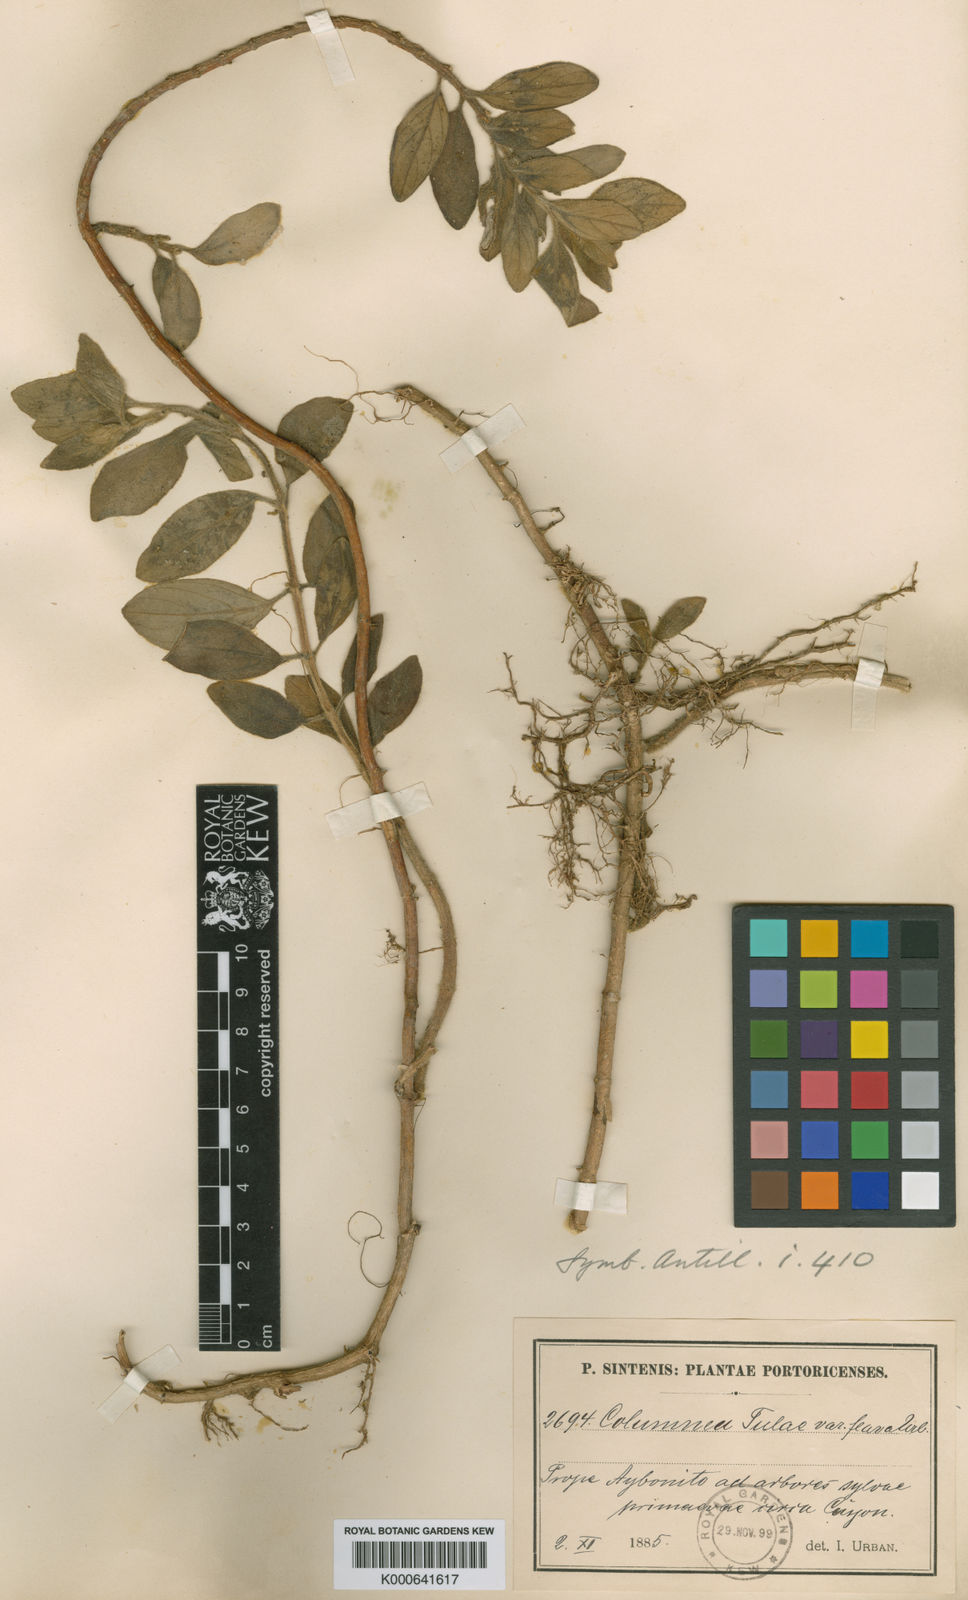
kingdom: Plantae
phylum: Tracheophyta
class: Magnoliopsida
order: Lamiales
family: Gesneriaceae
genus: Columnea
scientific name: Columnea scandens
